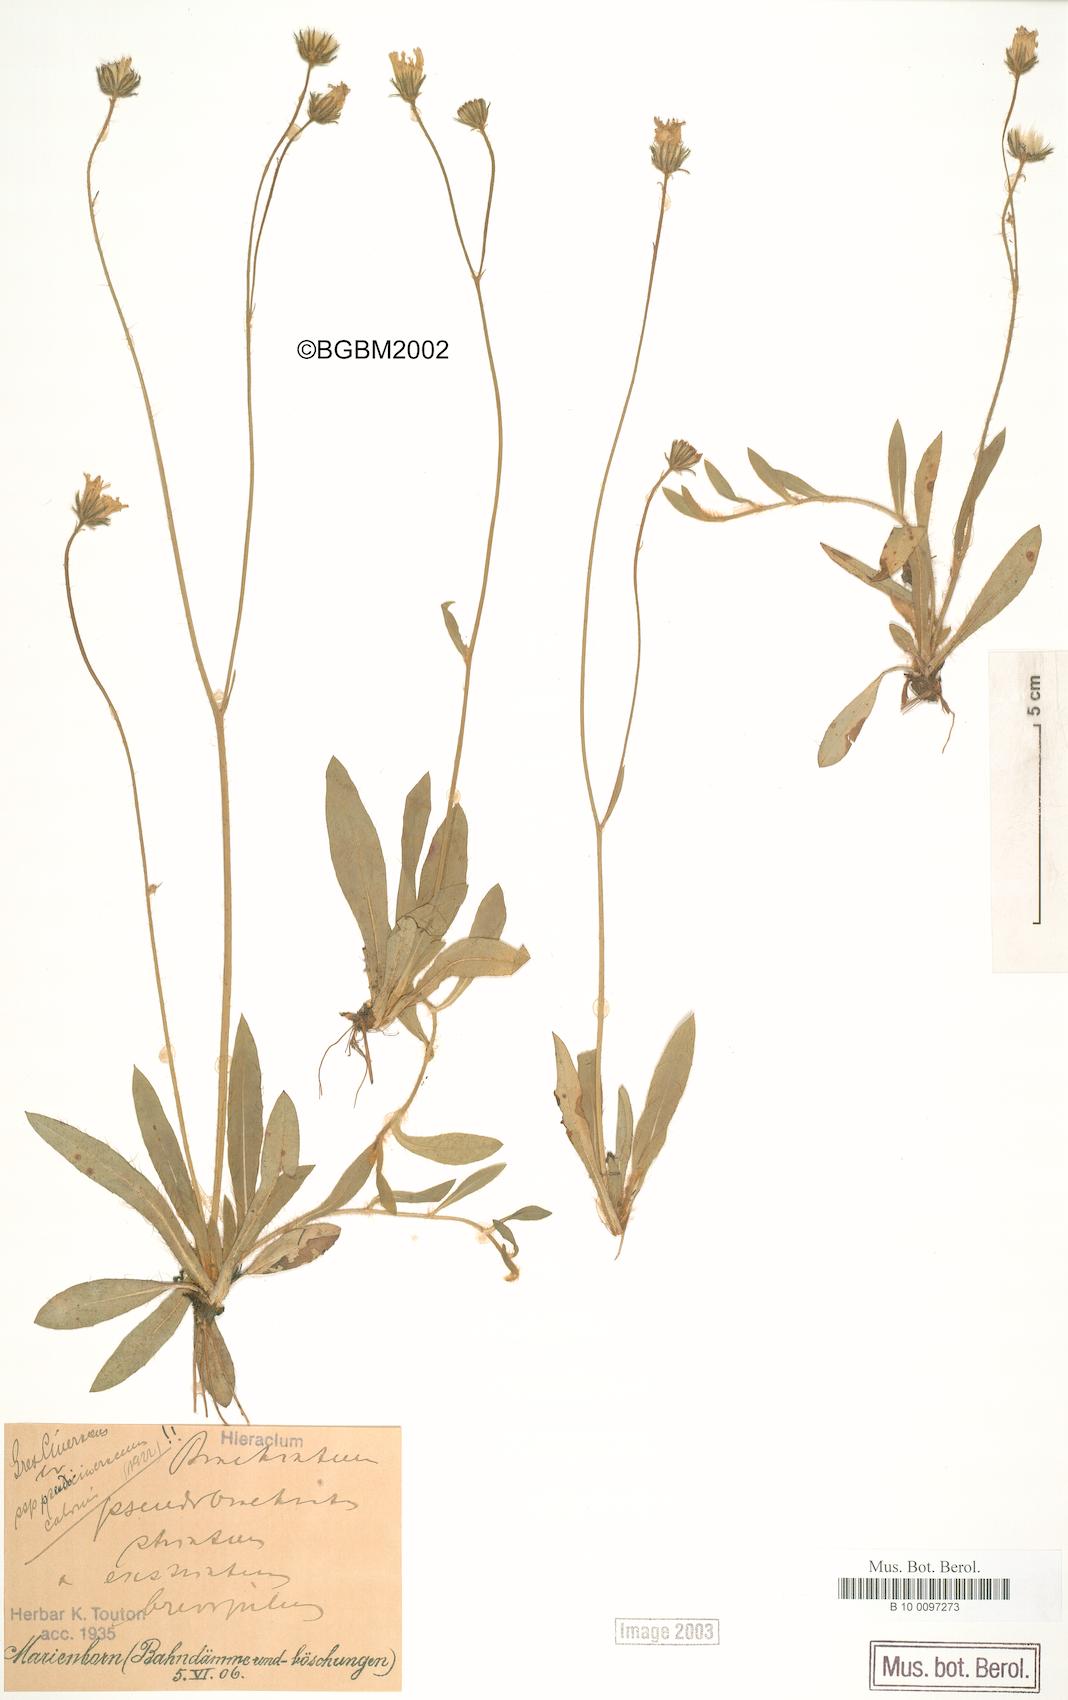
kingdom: Plantae
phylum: Tracheophyta
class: Magnoliopsida
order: Asterales
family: Asteraceae
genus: Pilosella
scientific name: Pilosella acutifolia
